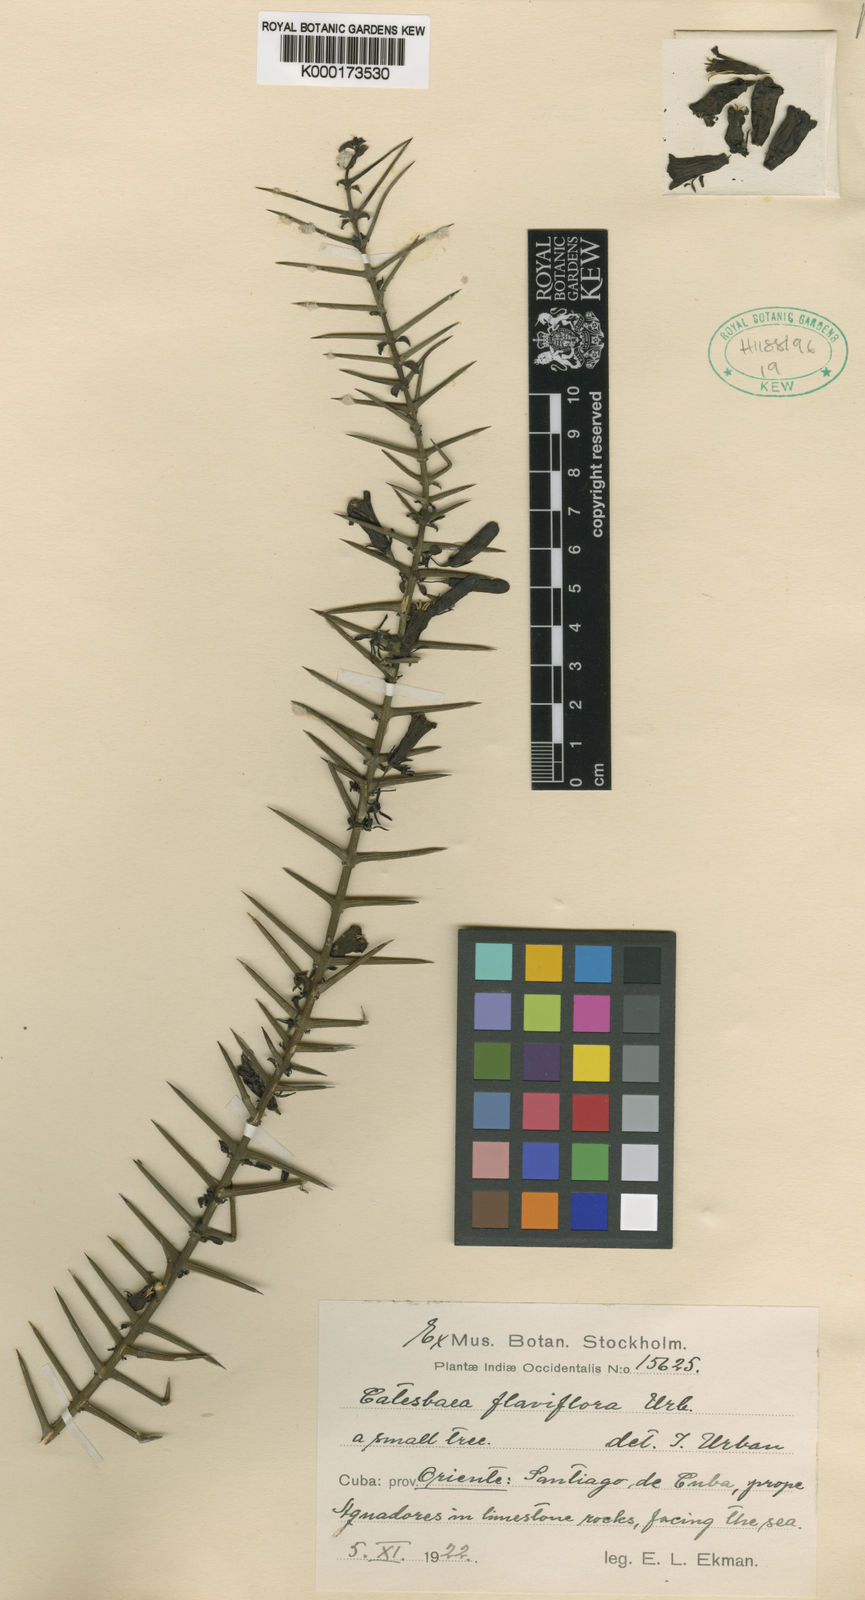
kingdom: Plantae
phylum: Tracheophyta
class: Magnoliopsida
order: Gentianales
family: Rubiaceae
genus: Catesbaea
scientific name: Catesbaea flaviflora
